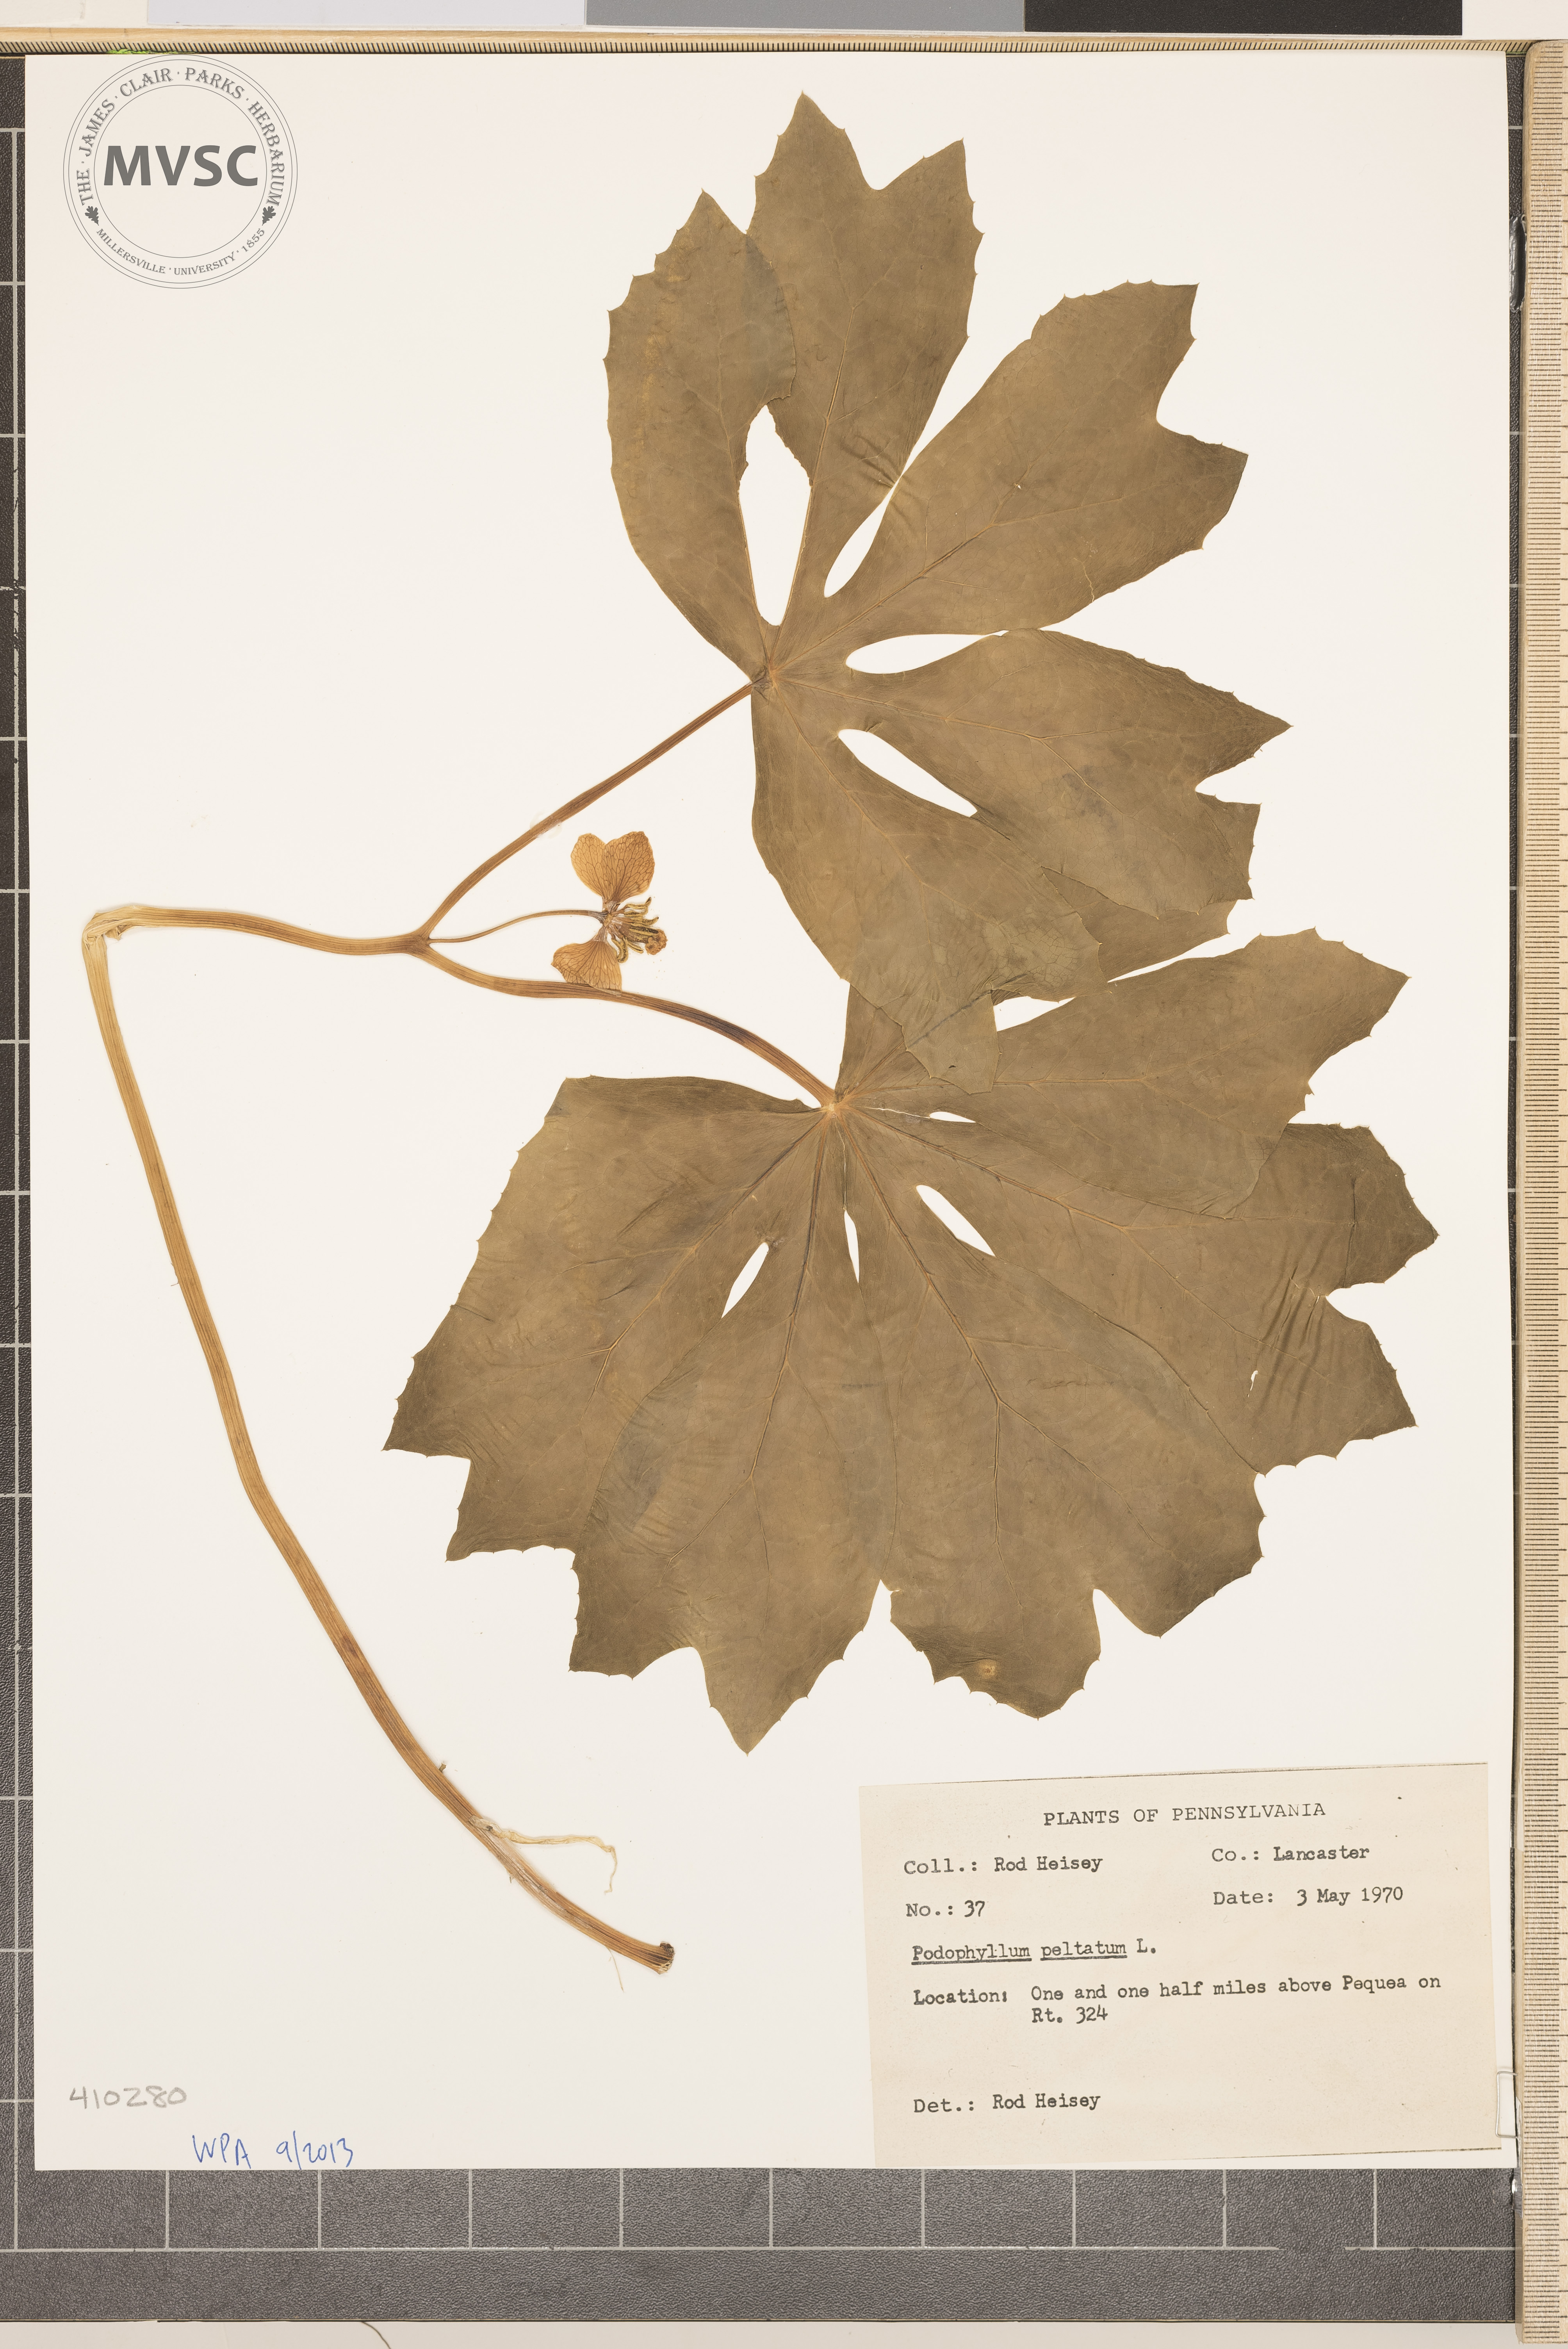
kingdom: Plantae
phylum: Tracheophyta
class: Magnoliopsida
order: Ranunculales
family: Berberidaceae
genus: Podophyllum
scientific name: Podophyllum peltatum
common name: Wild mandrake
